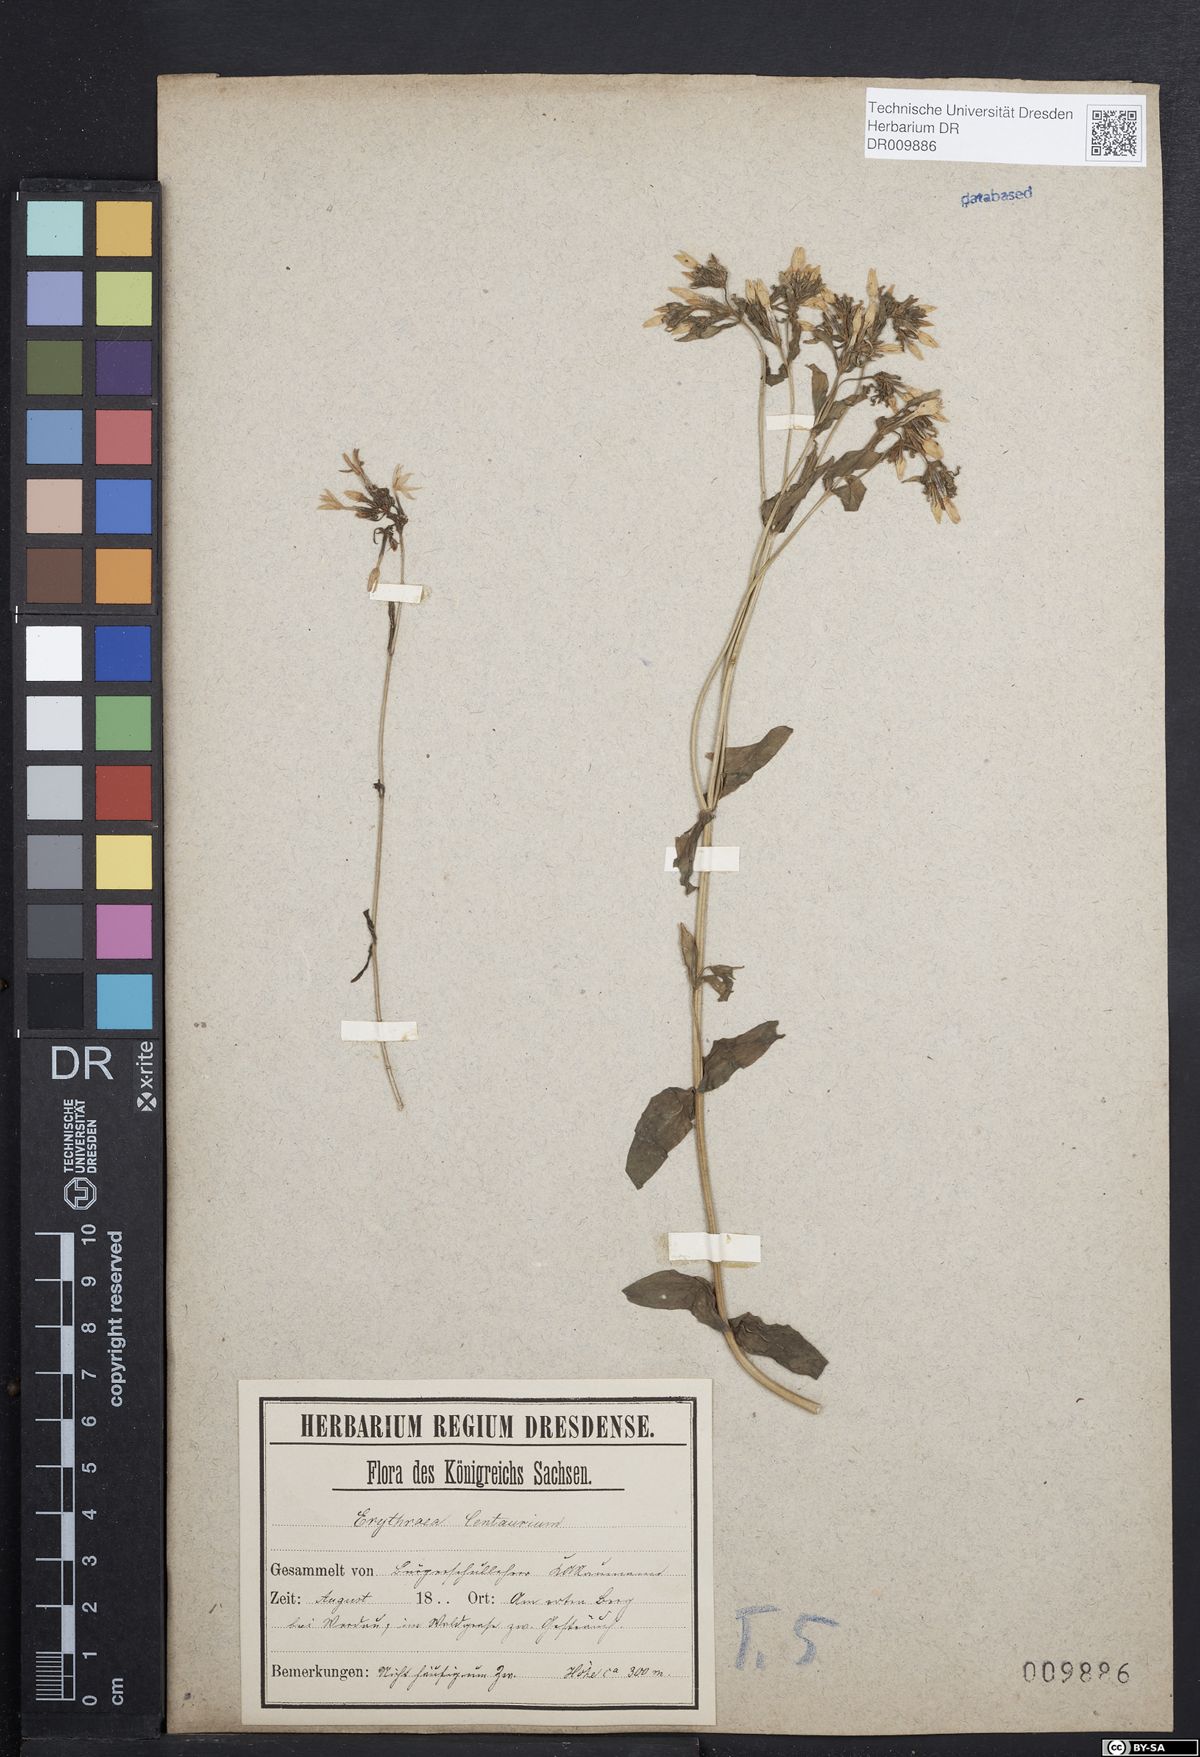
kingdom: Plantae
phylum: Tracheophyta
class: Magnoliopsida
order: Gentianales
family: Gentianaceae
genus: Centaurium
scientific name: Centaurium erythraea
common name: Common centaury
